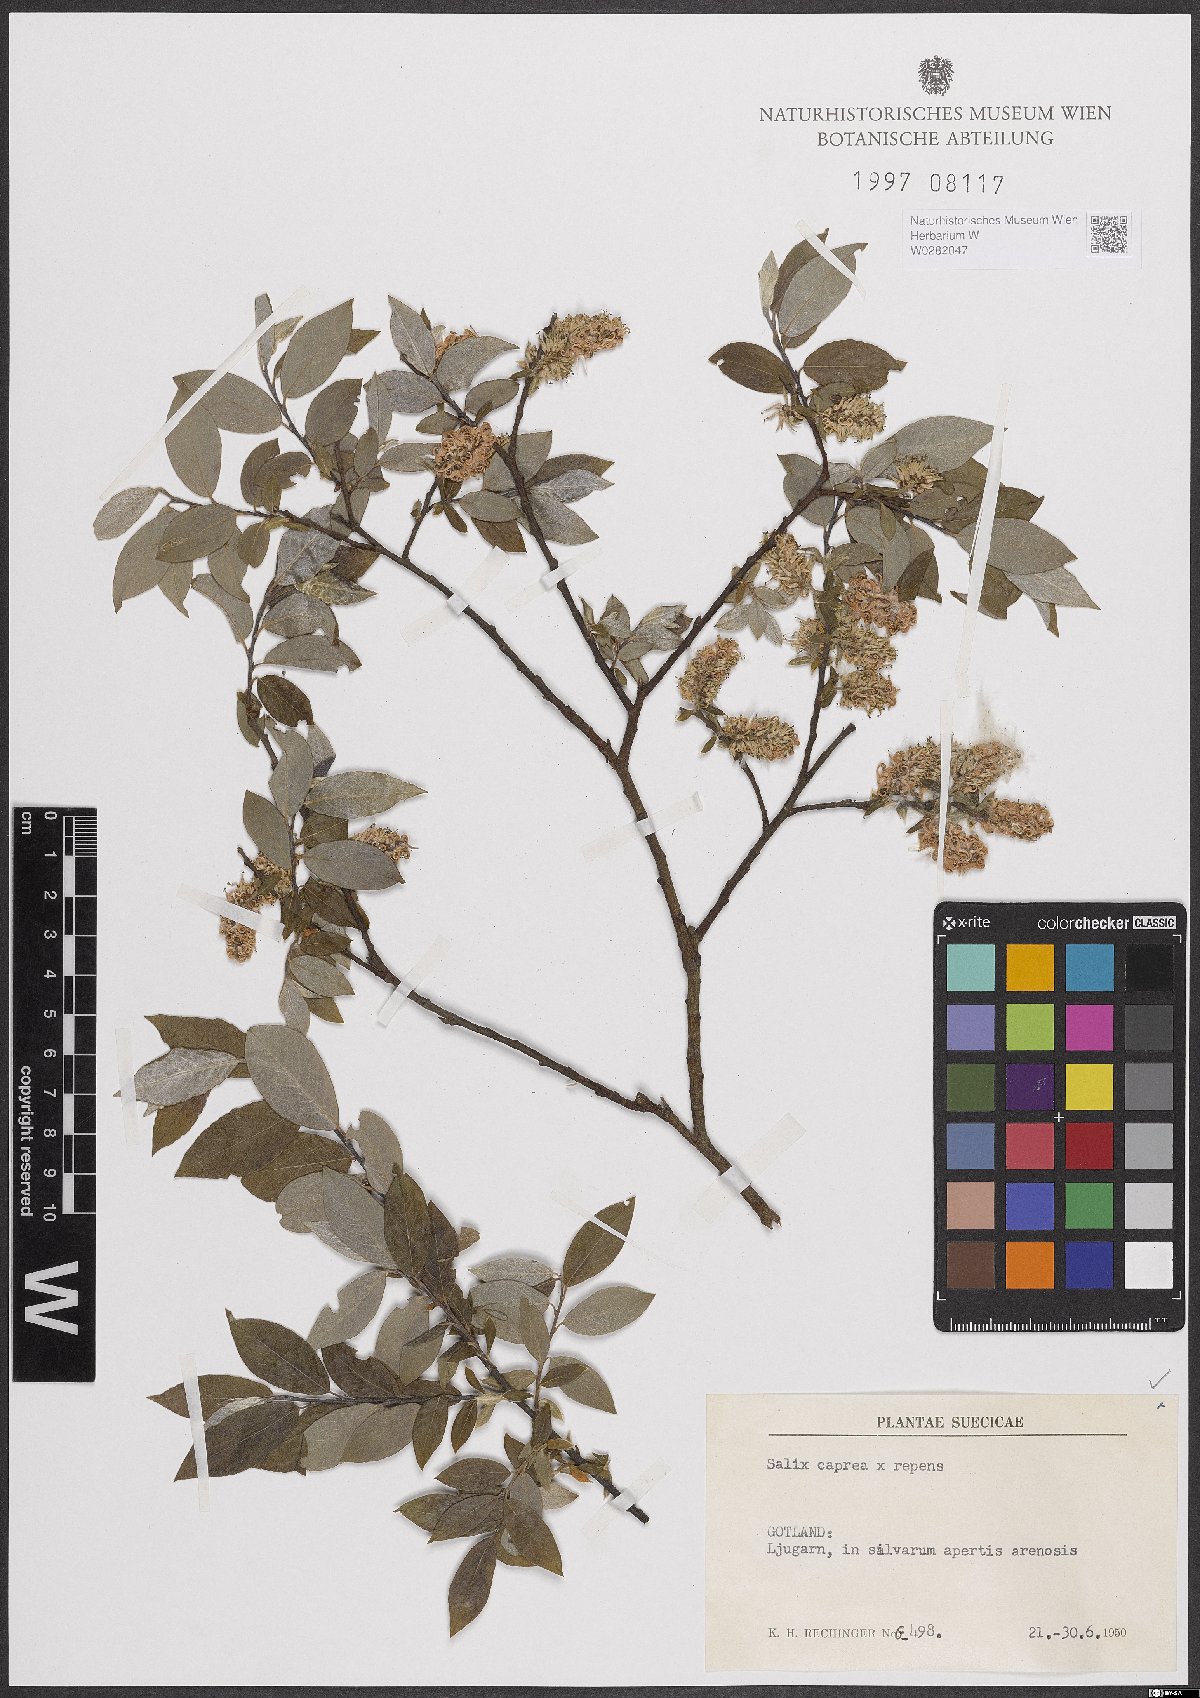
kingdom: Plantae
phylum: Tracheophyta
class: Magnoliopsida
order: Malpighiales
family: Salicaceae
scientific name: Salicaceae
